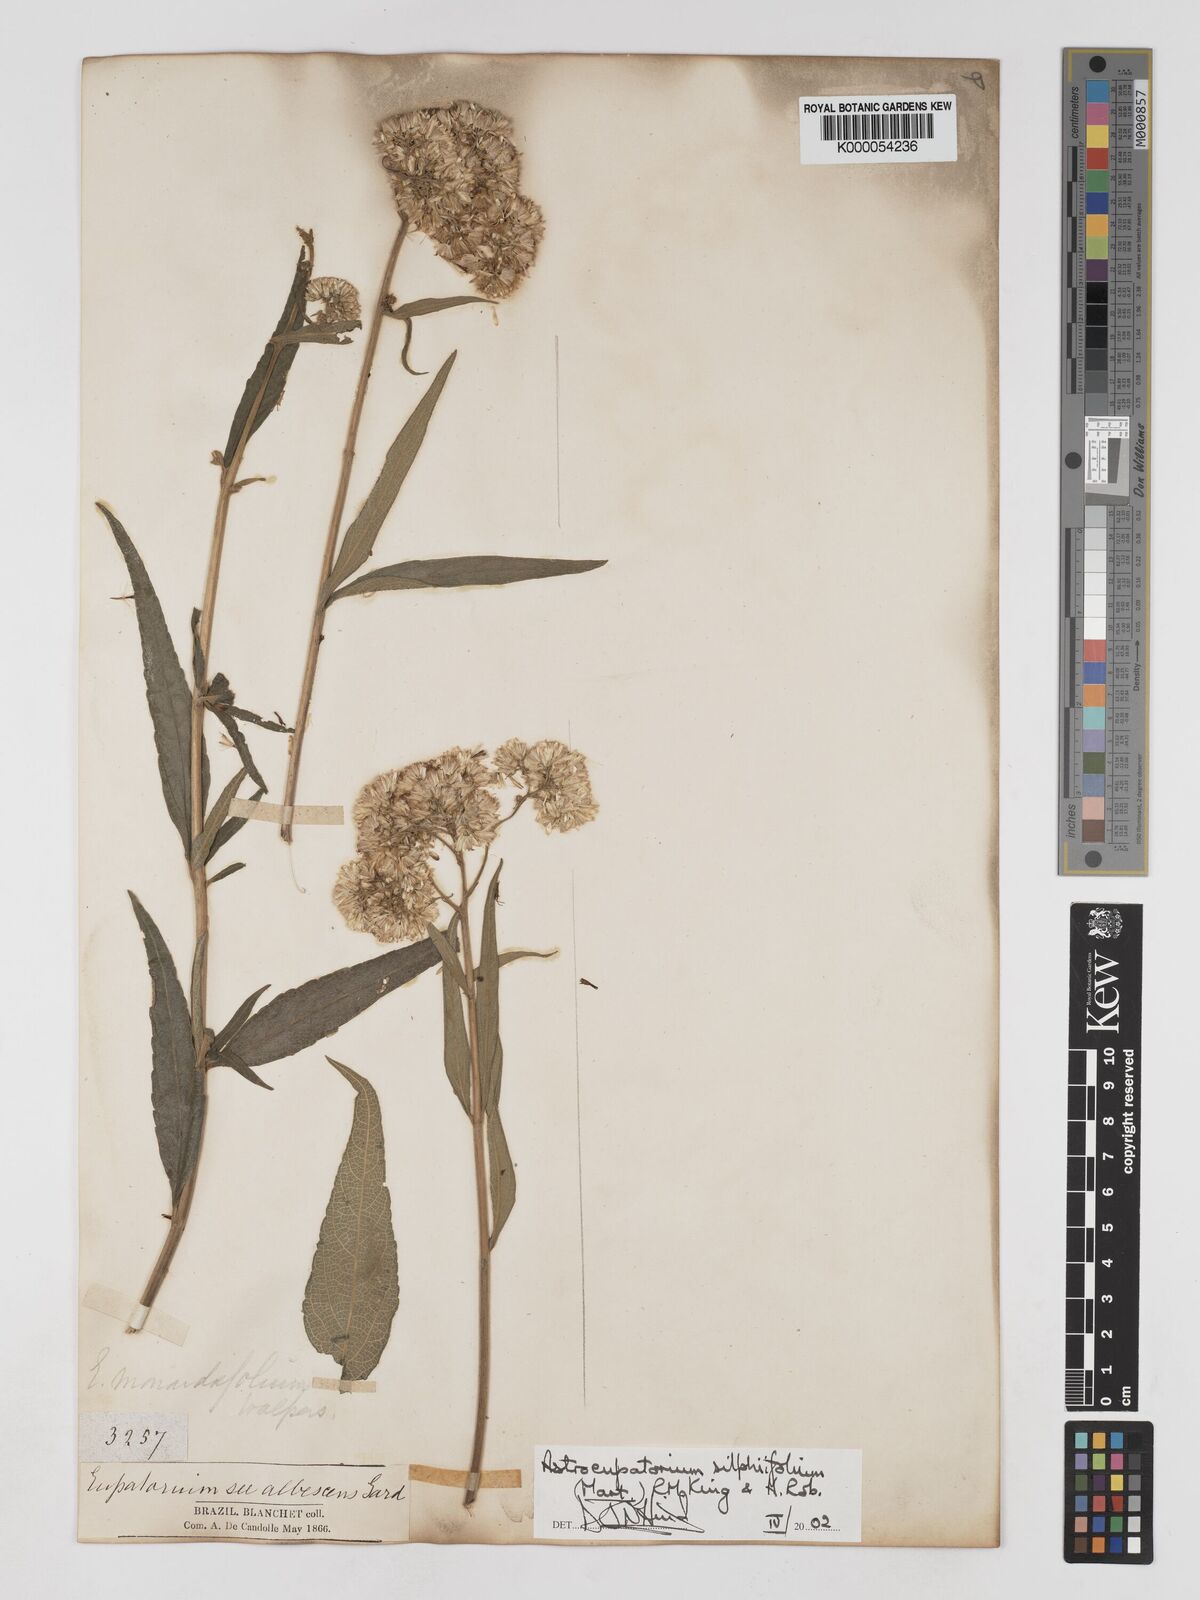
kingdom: Plantae
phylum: Tracheophyta
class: Magnoliopsida
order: Asterales
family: Asteraceae
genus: Austroeupatorium
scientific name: Austroeupatorium silphiifolium
